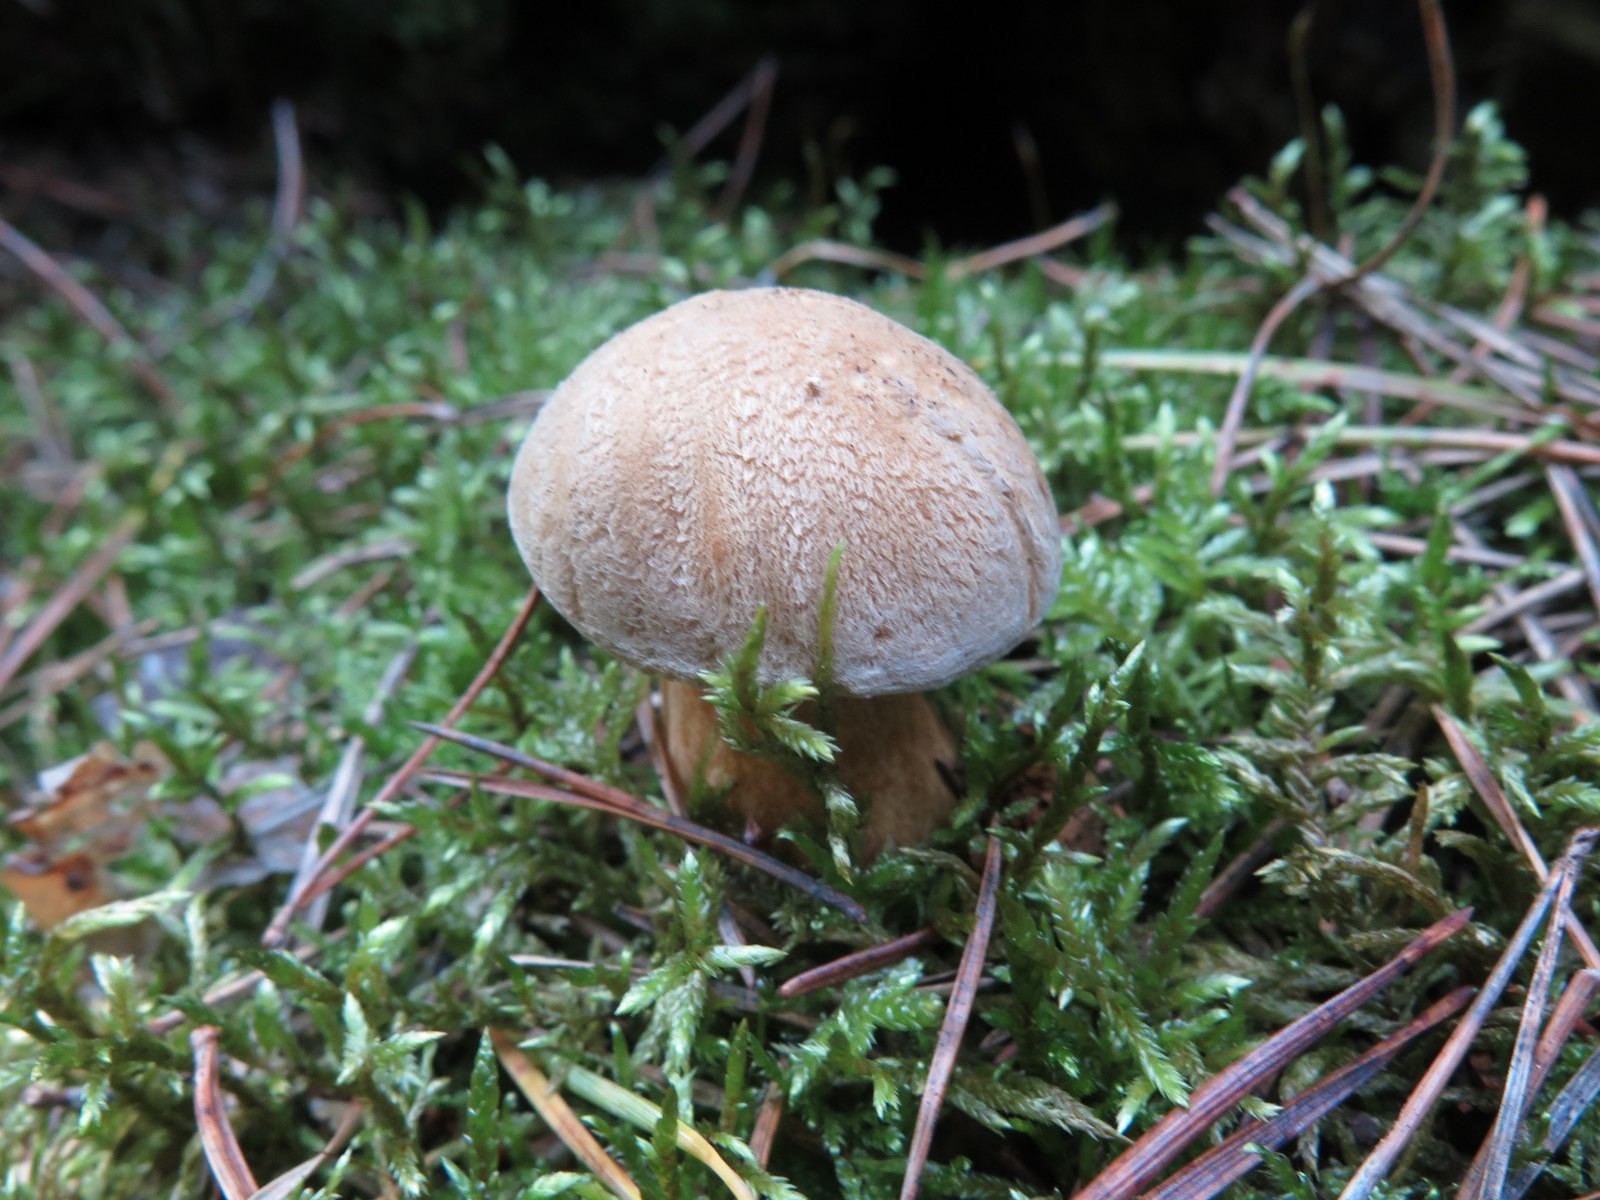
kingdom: Fungi
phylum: Basidiomycota
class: Agaricomycetes
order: Boletales
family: Suillaceae
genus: Suillus
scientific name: Suillus variegatus
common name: broget slimrørhat
